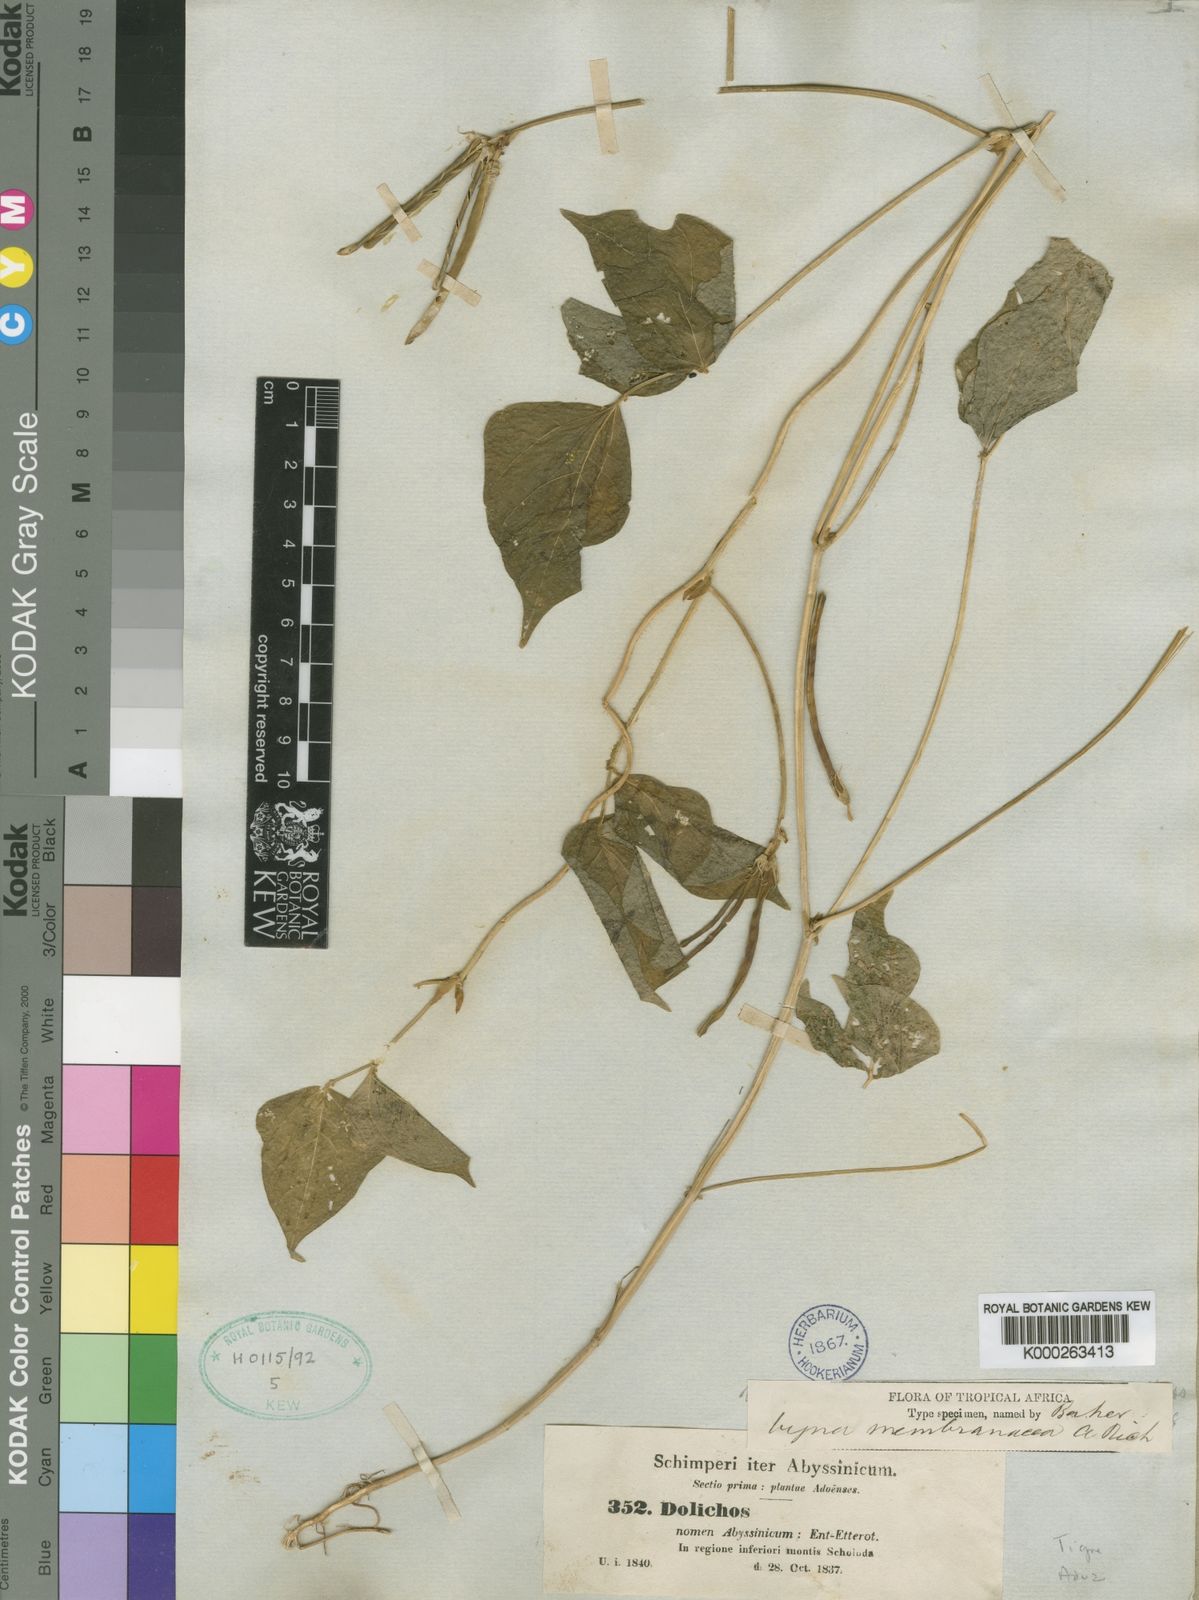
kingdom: Plantae
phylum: Tracheophyta
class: Magnoliopsida
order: Fabales
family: Fabaceae
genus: Vigna
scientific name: Vigna membranacea
